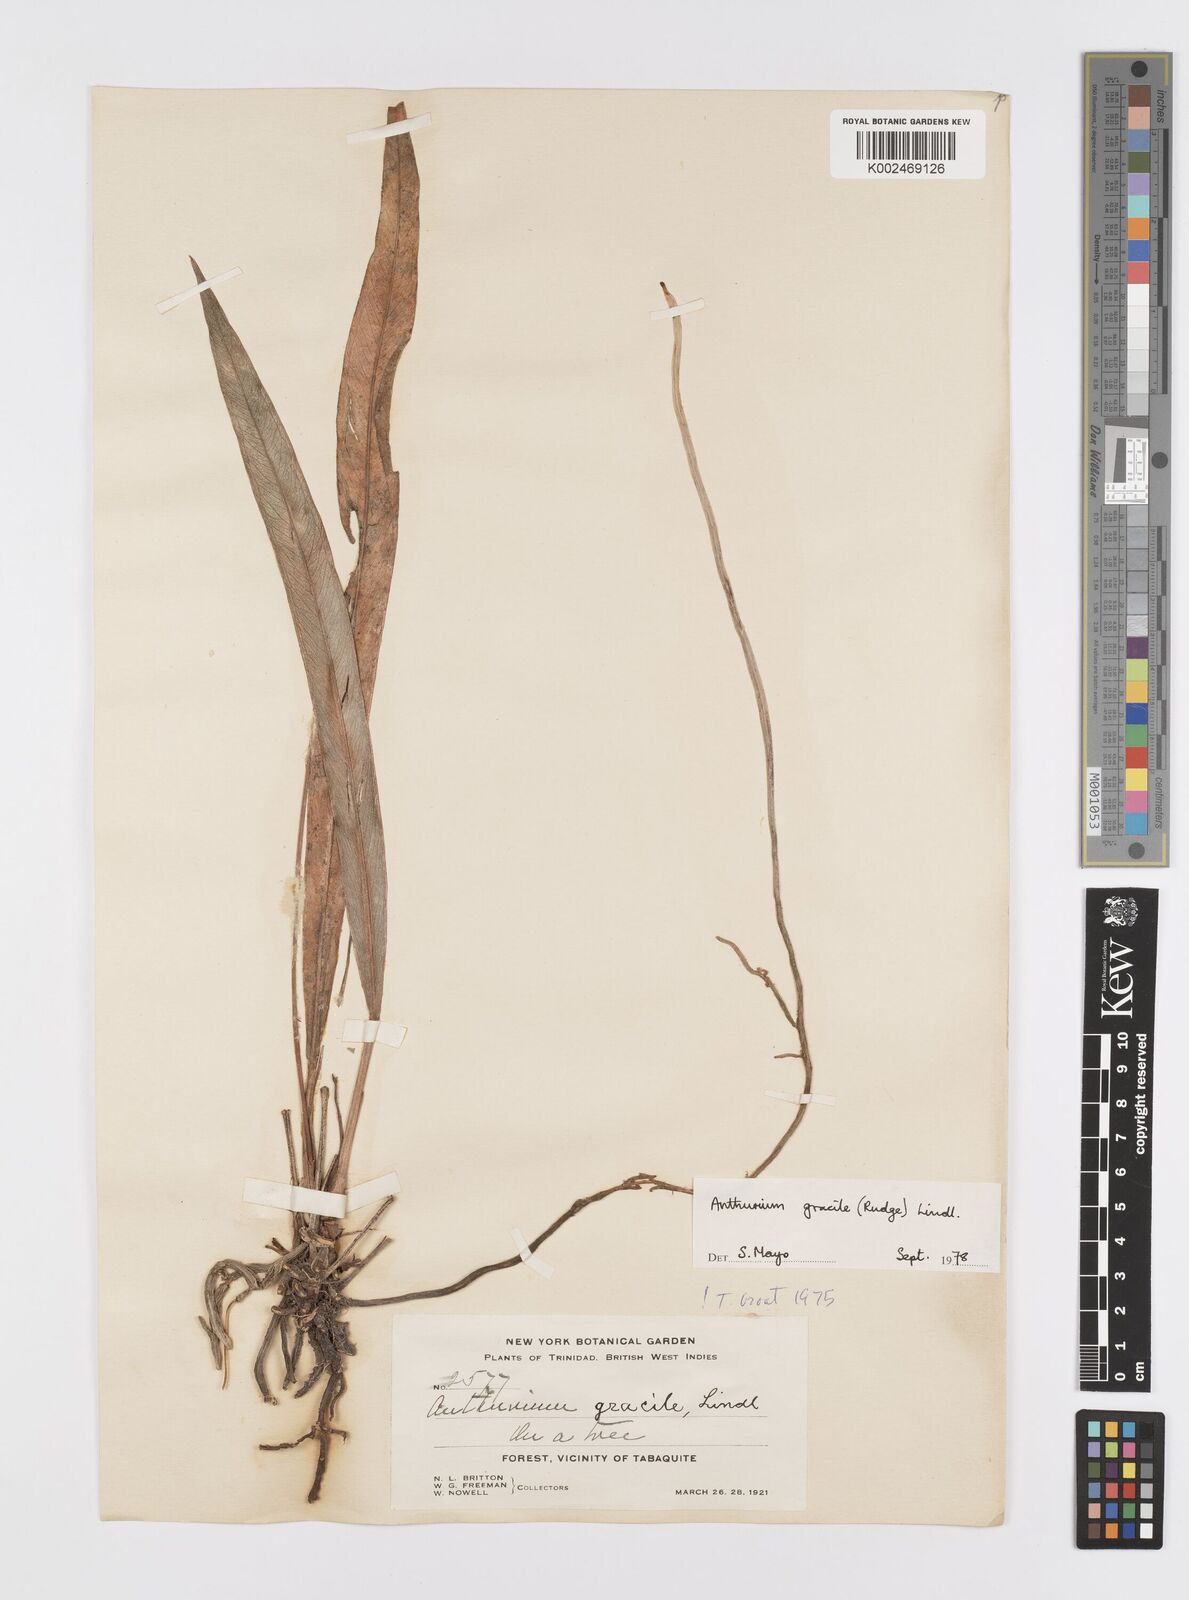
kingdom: Plantae
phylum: Tracheophyta
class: Liliopsida
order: Alismatales
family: Araceae
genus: Anthurium
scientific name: Anthurium gracile
